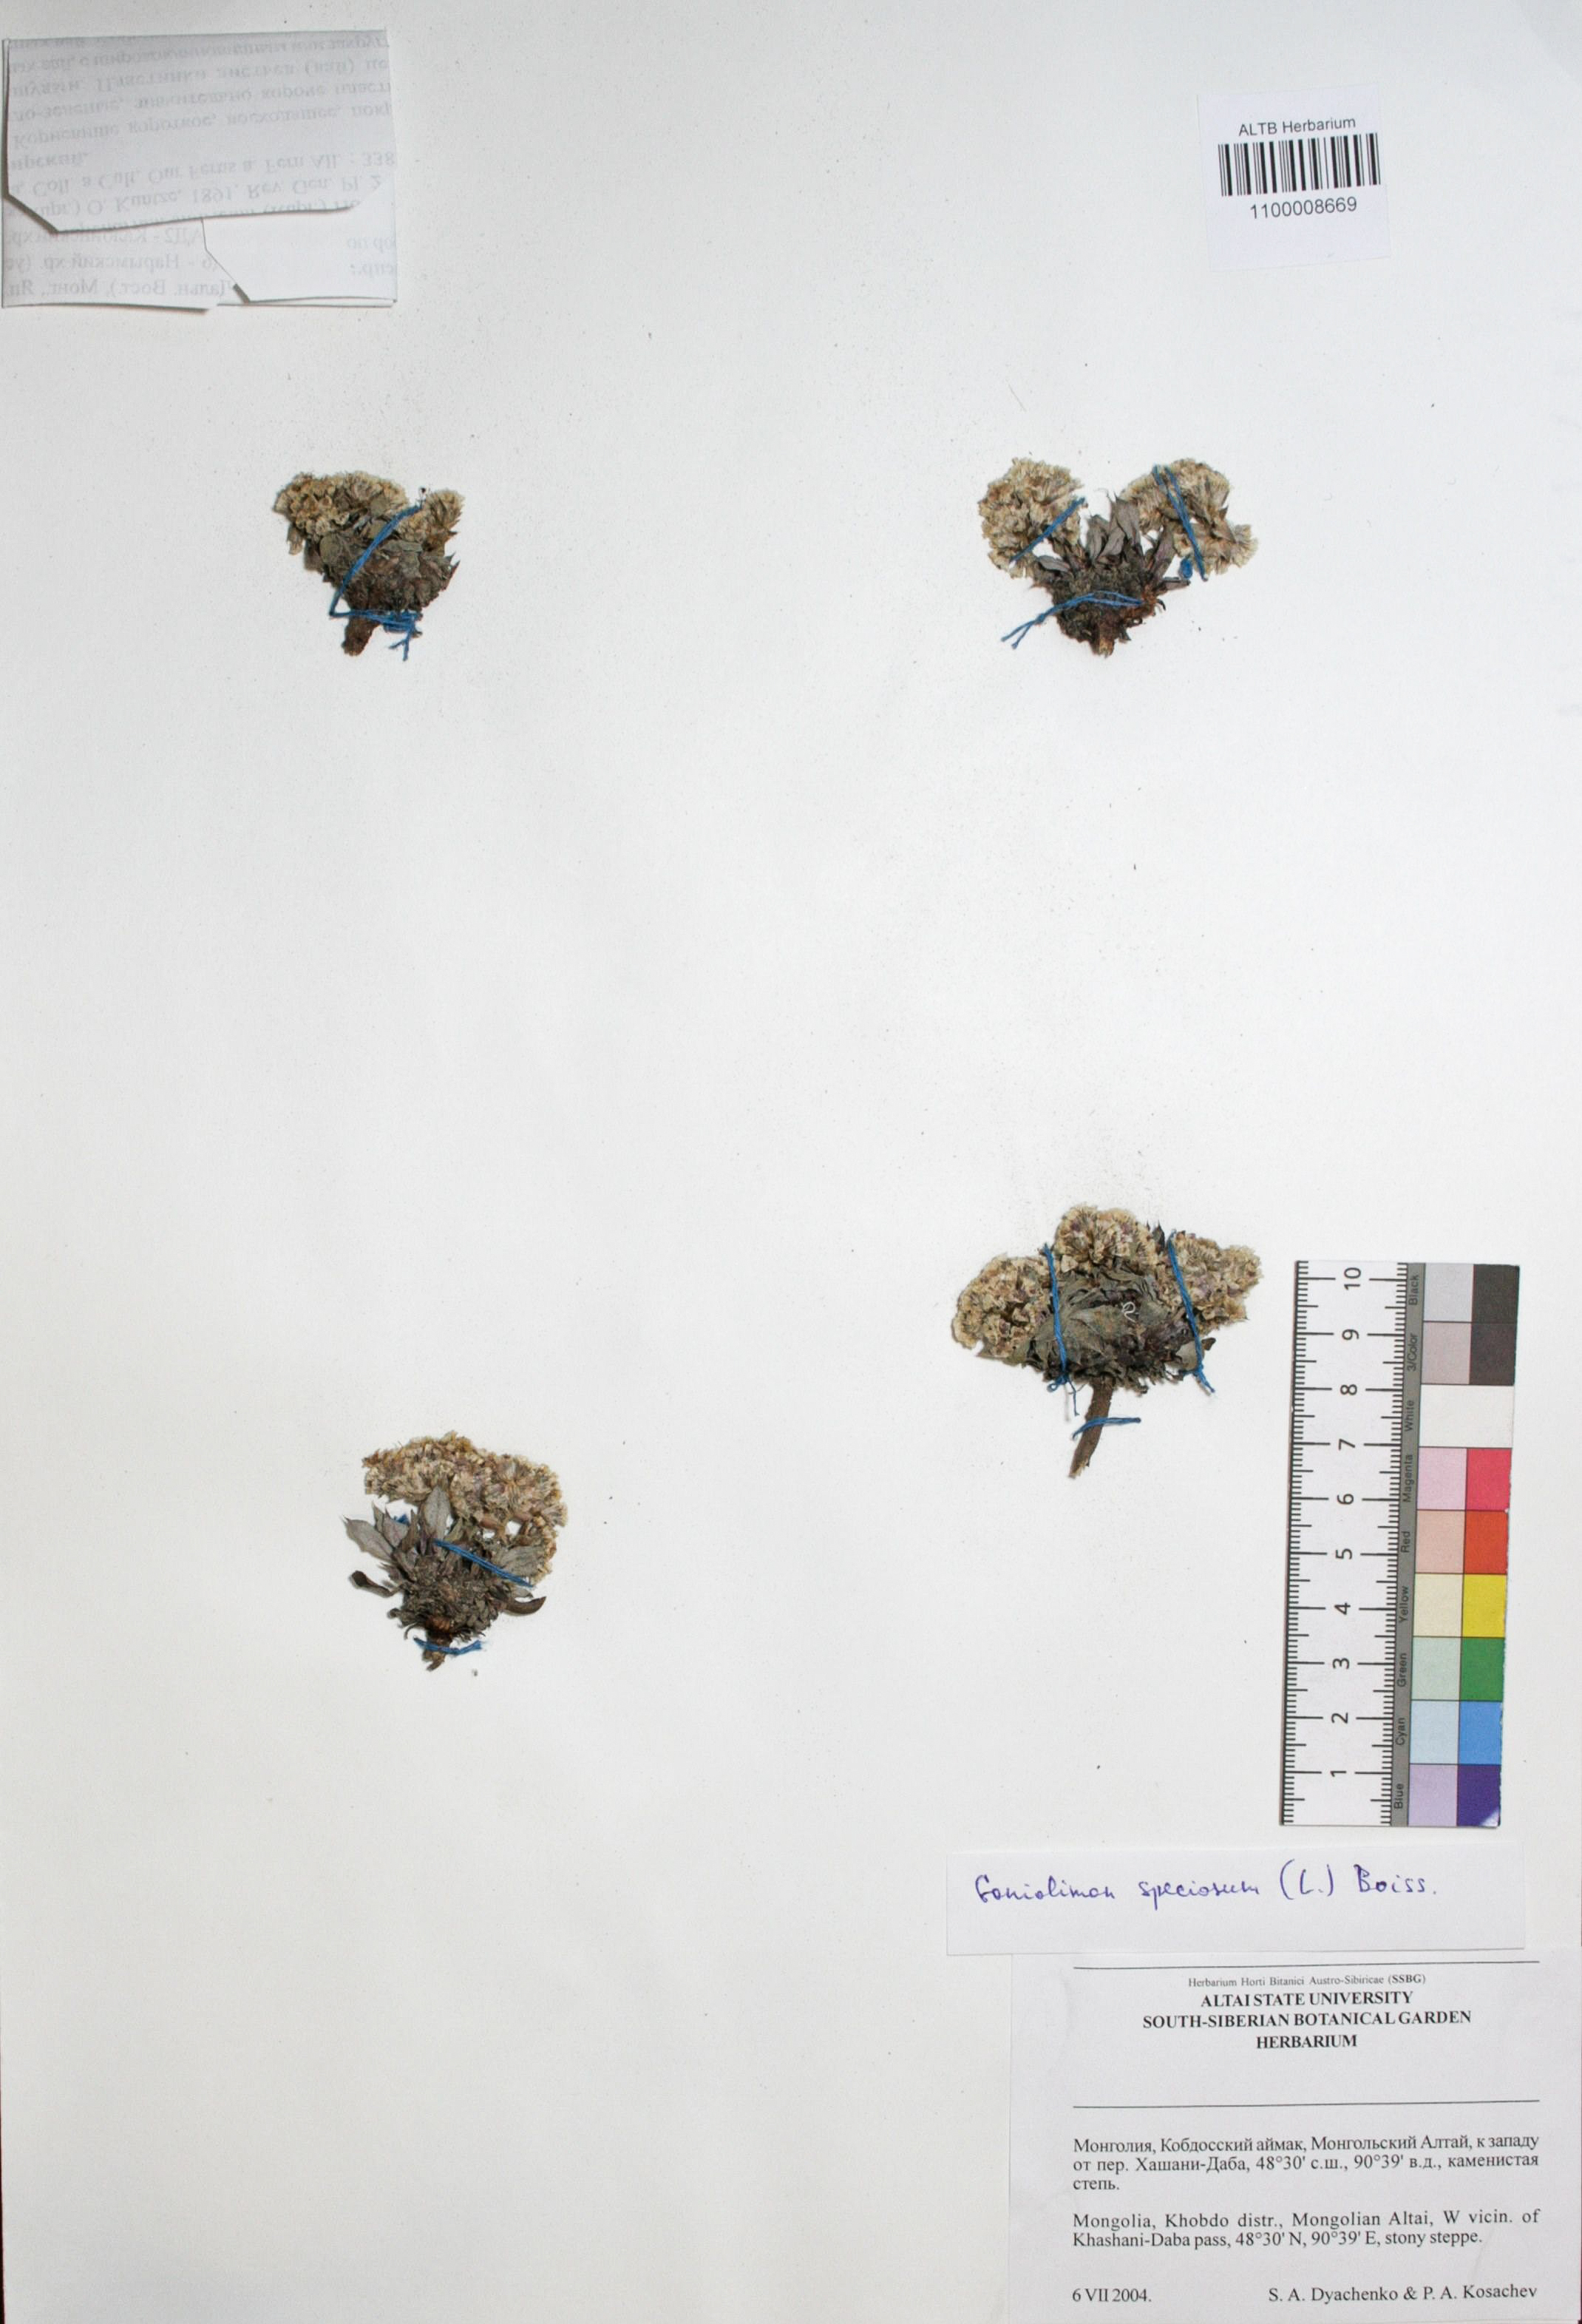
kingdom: Plantae
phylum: Tracheophyta
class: Magnoliopsida
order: Caryophyllales
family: Plumbaginaceae
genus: Goniolimon
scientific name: Goniolimon speciosum
